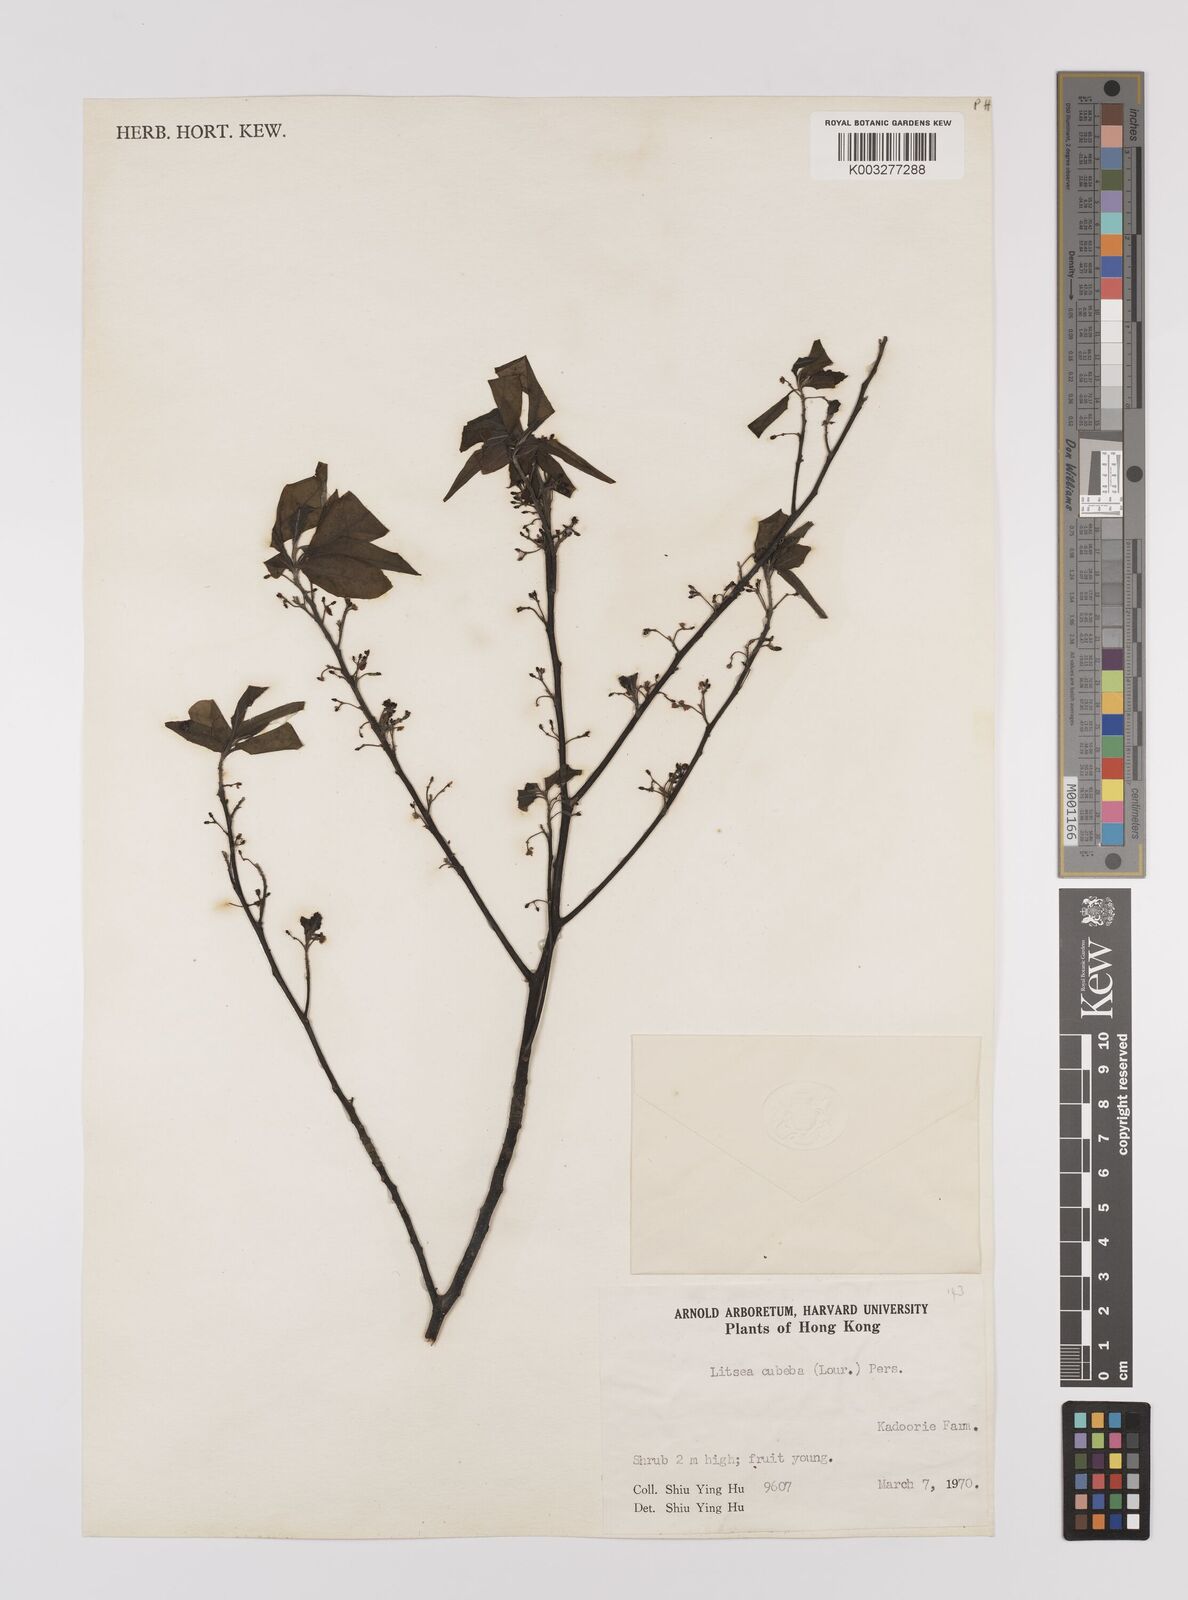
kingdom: Plantae
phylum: Tracheophyta
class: Magnoliopsida
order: Laurales
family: Lauraceae
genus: Litsea
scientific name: Litsea cubeba
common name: Mountain-pepper
